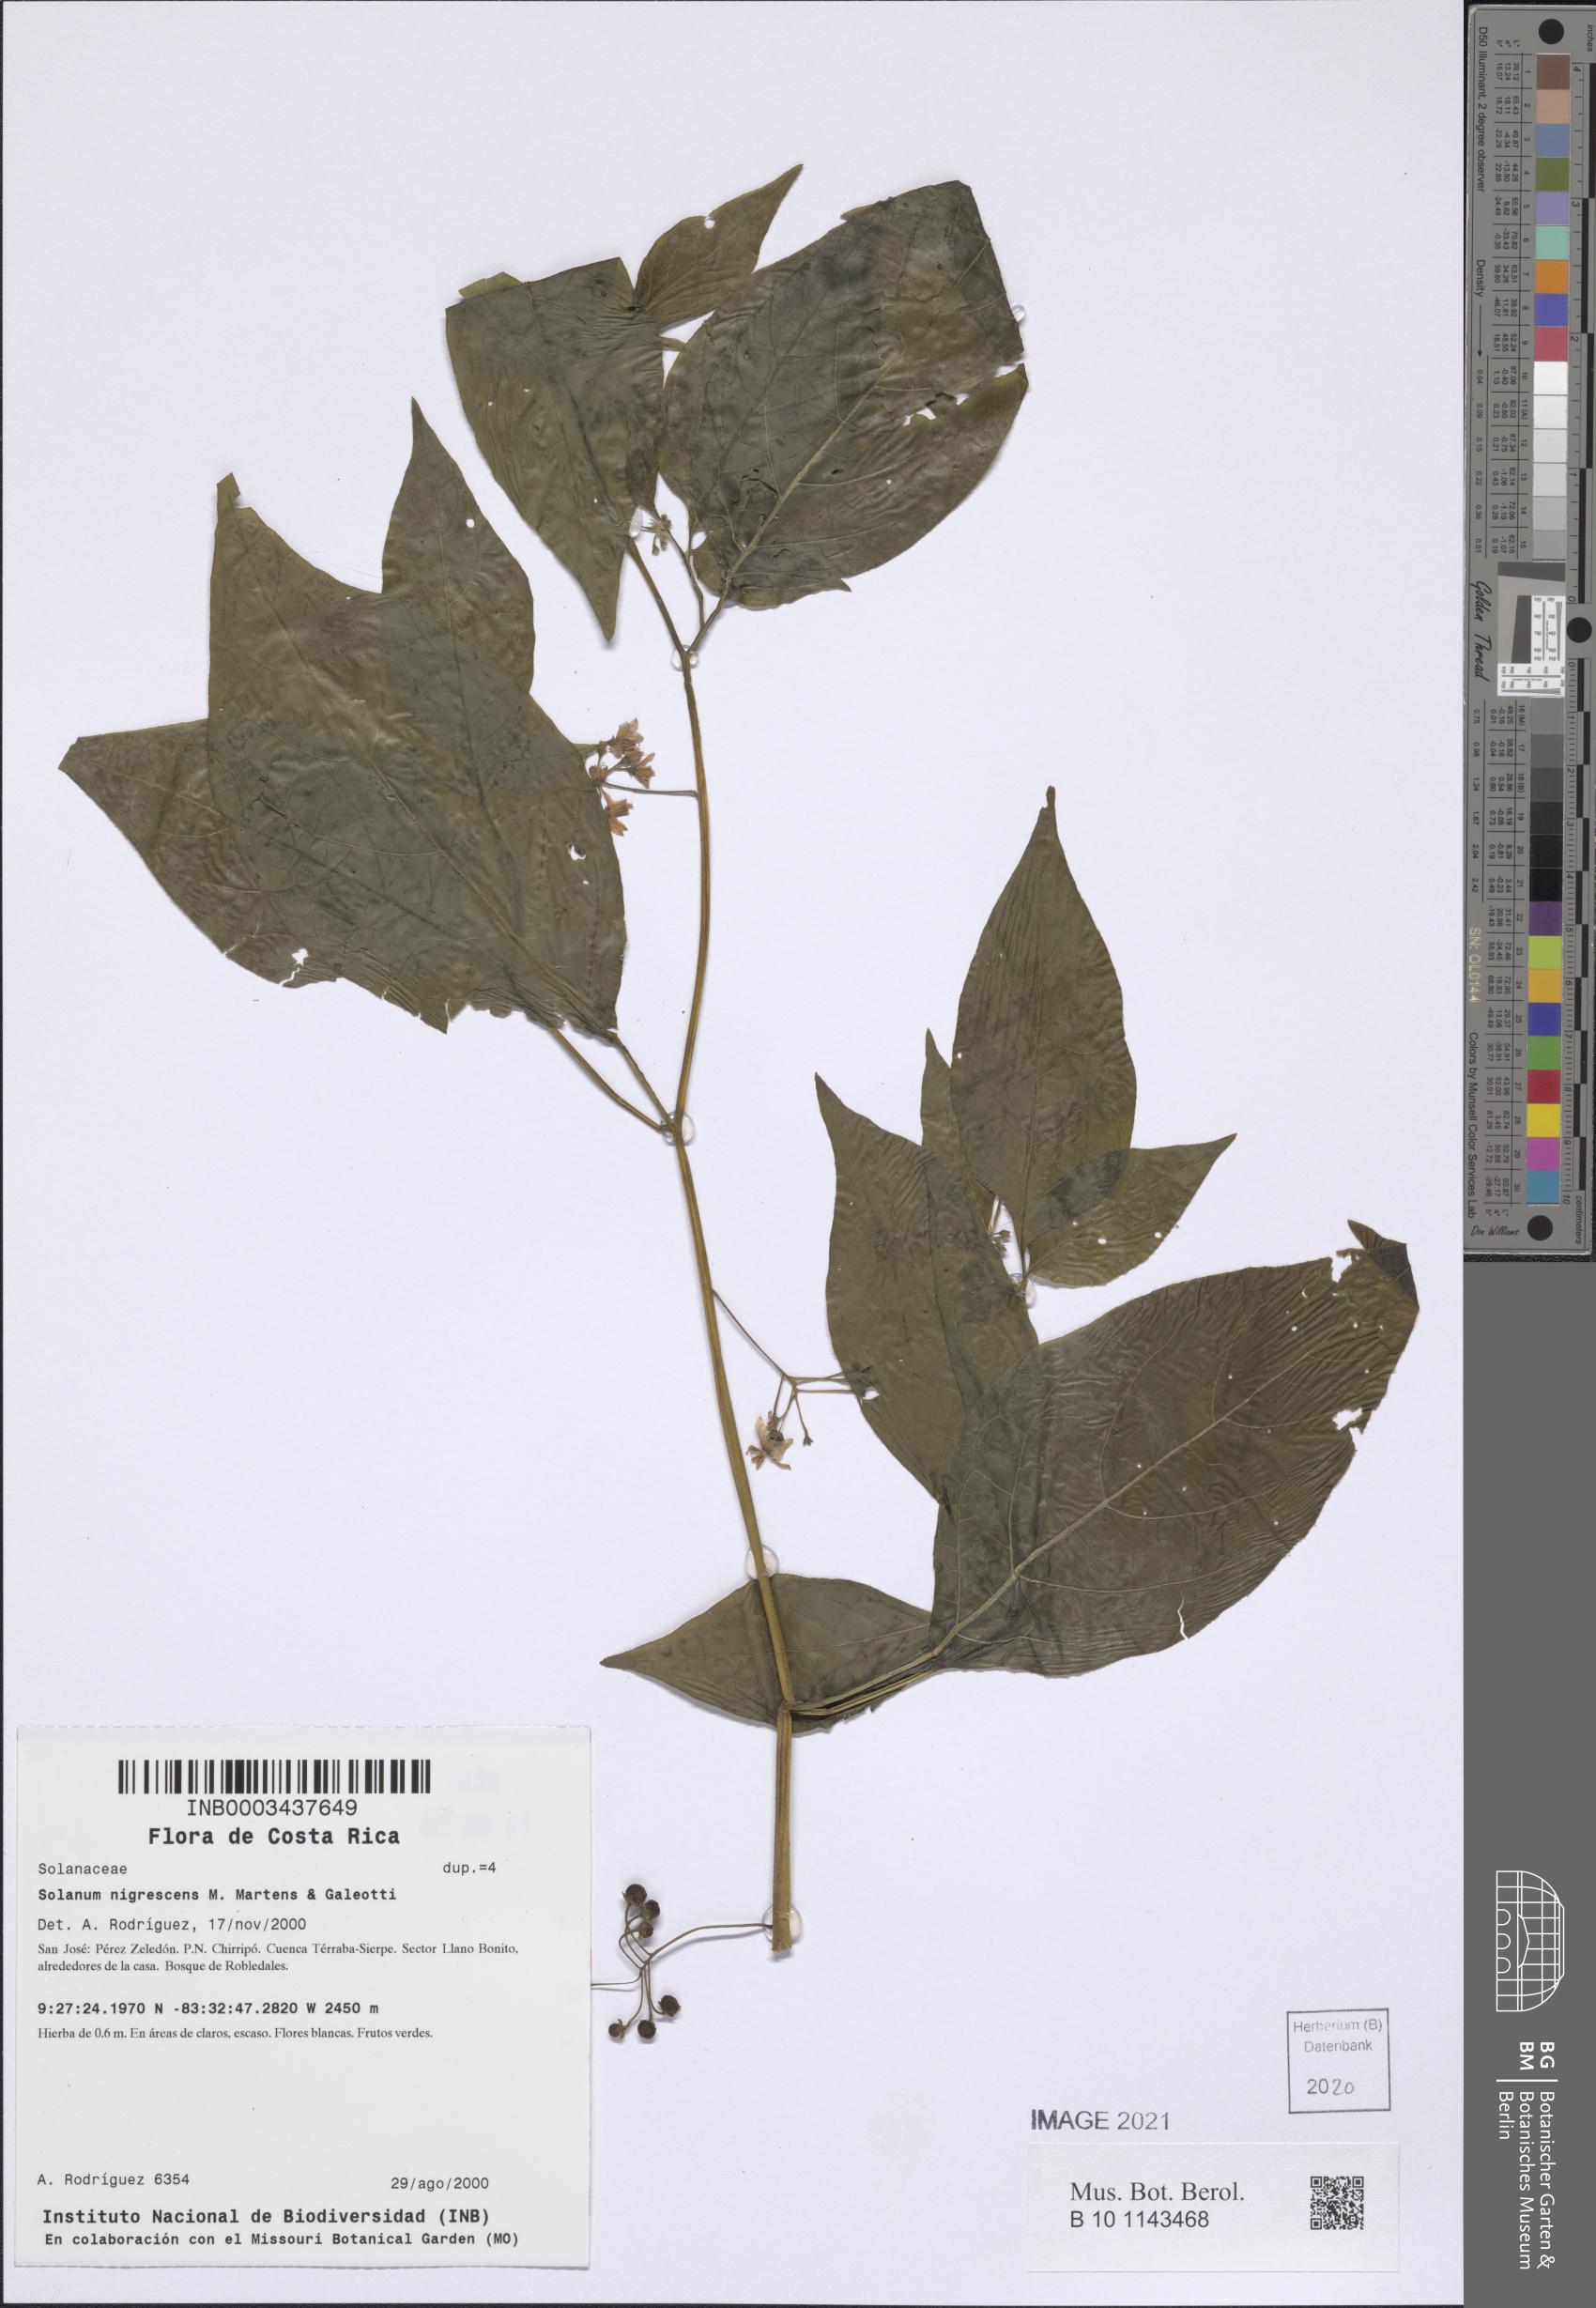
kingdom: Plantae
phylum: Tracheophyta
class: Magnoliopsida
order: Solanales
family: Solanaceae
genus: Solanum
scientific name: Solanum nigrescens
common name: Divine nightshade
